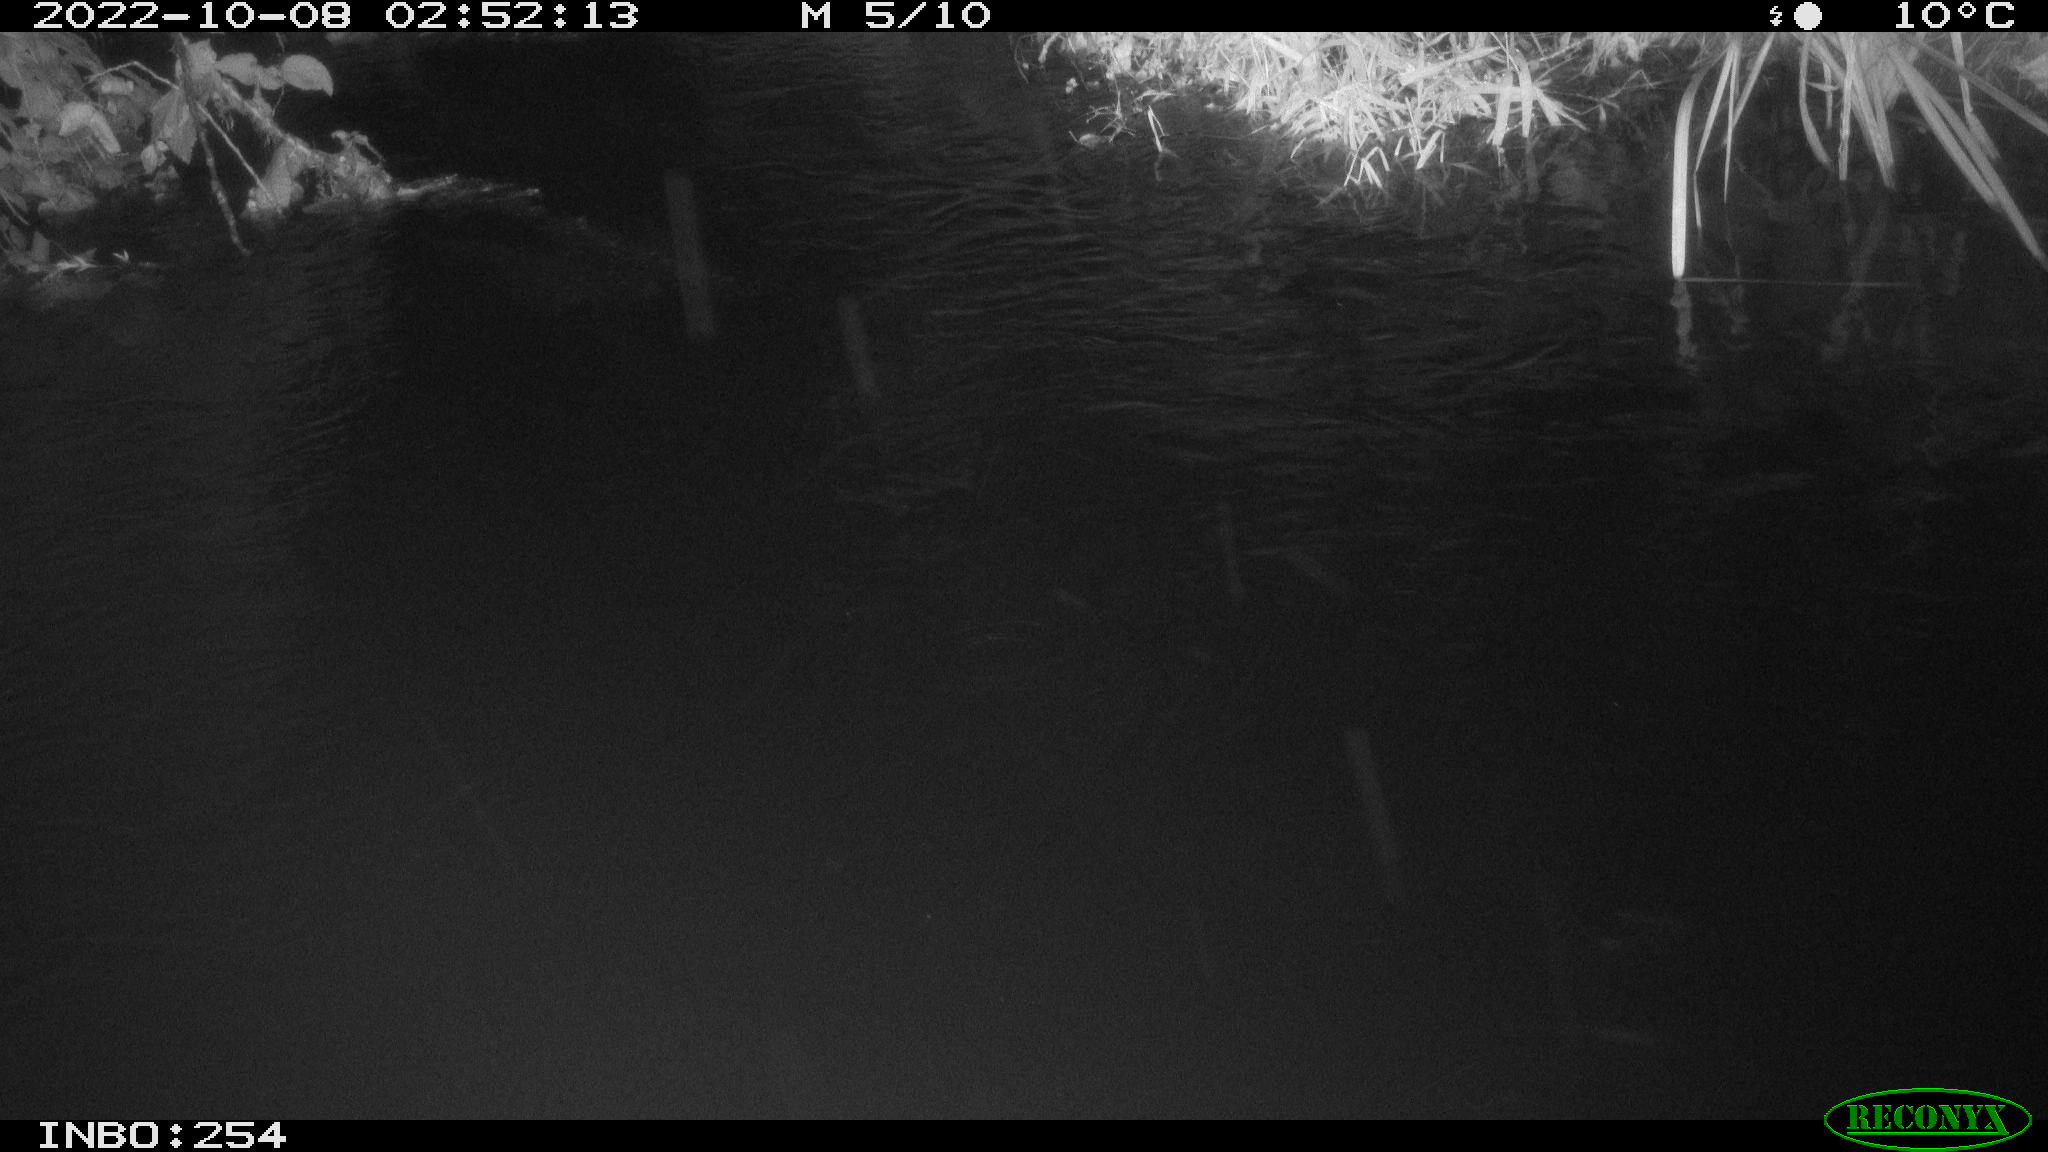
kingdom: Animalia
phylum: Chordata
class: Aves
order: Anseriformes
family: Anatidae
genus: Anas
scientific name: Anas
